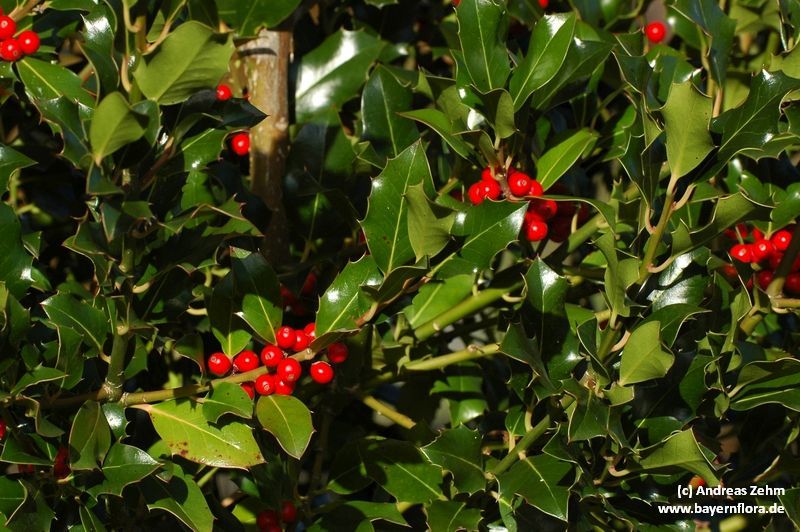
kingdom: Plantae
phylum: Tracheophyta
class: Magnoliopsida
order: Aquifoliales
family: Aquifoliaceae
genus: Ilex
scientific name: Ilex aquifolium
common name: English holly
